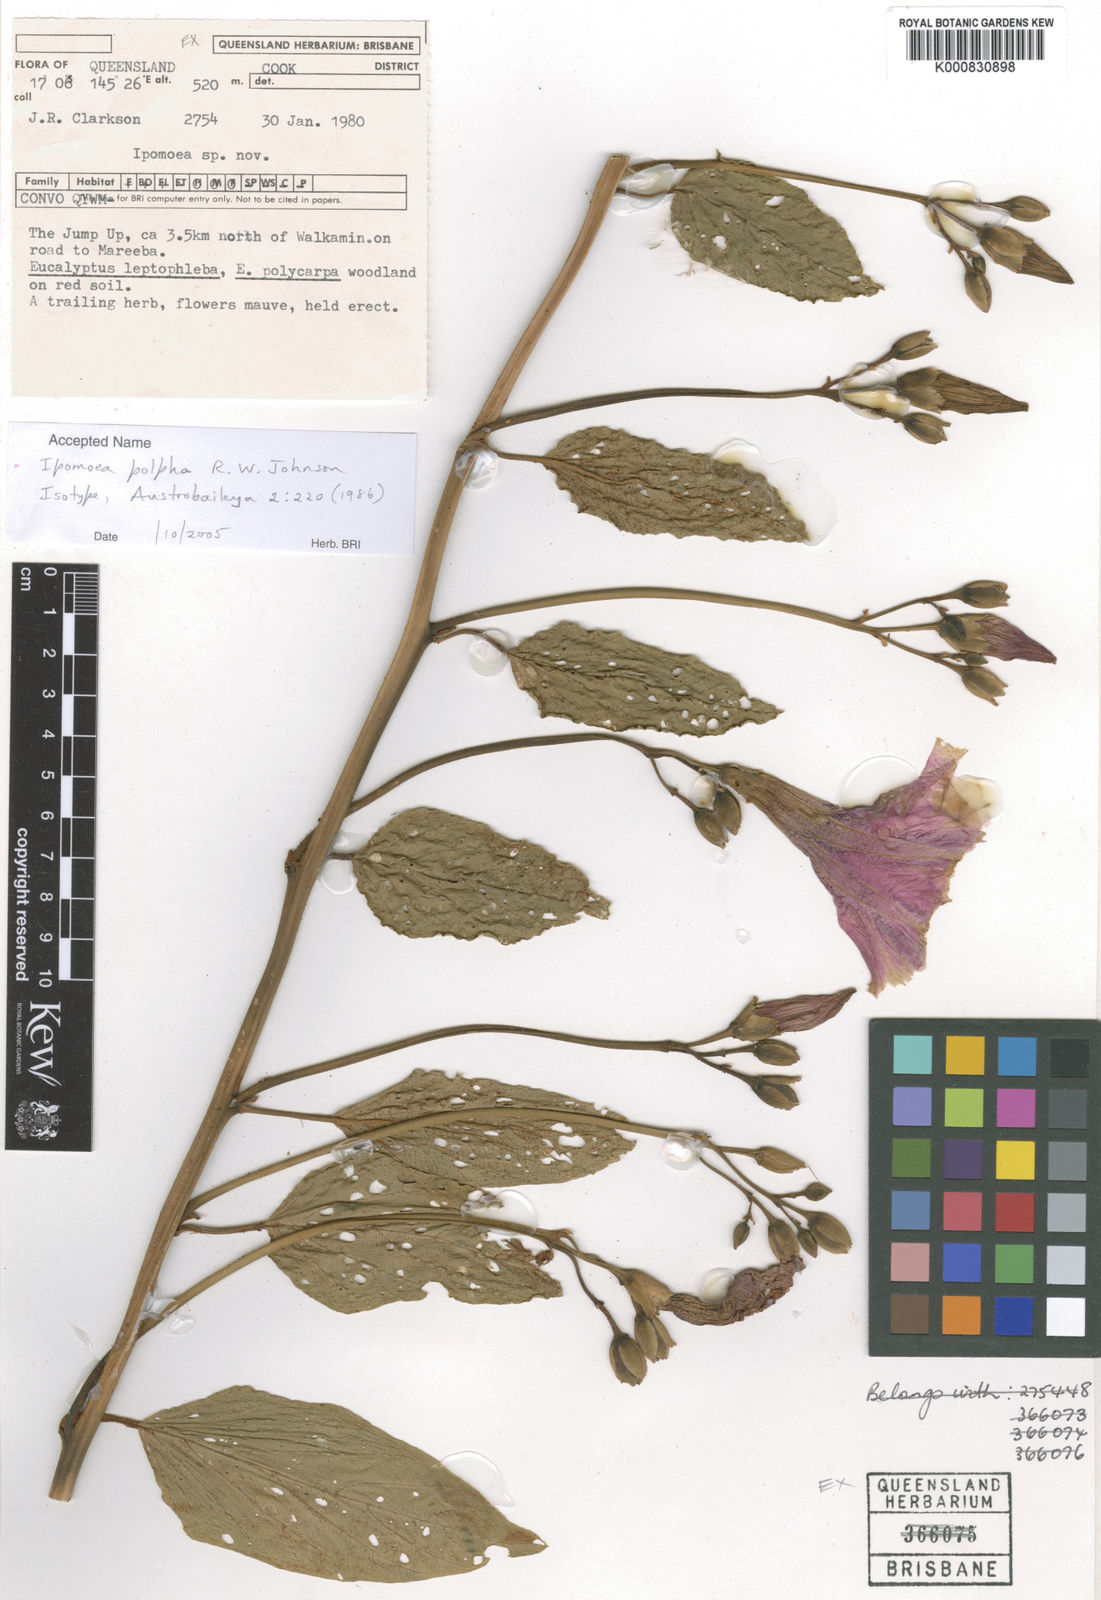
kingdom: Plantae
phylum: Tracheophyta
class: Magnoliopsida
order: Solanales
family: Convolvulaceae
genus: Ipomoea
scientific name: Ipomoea polpha
